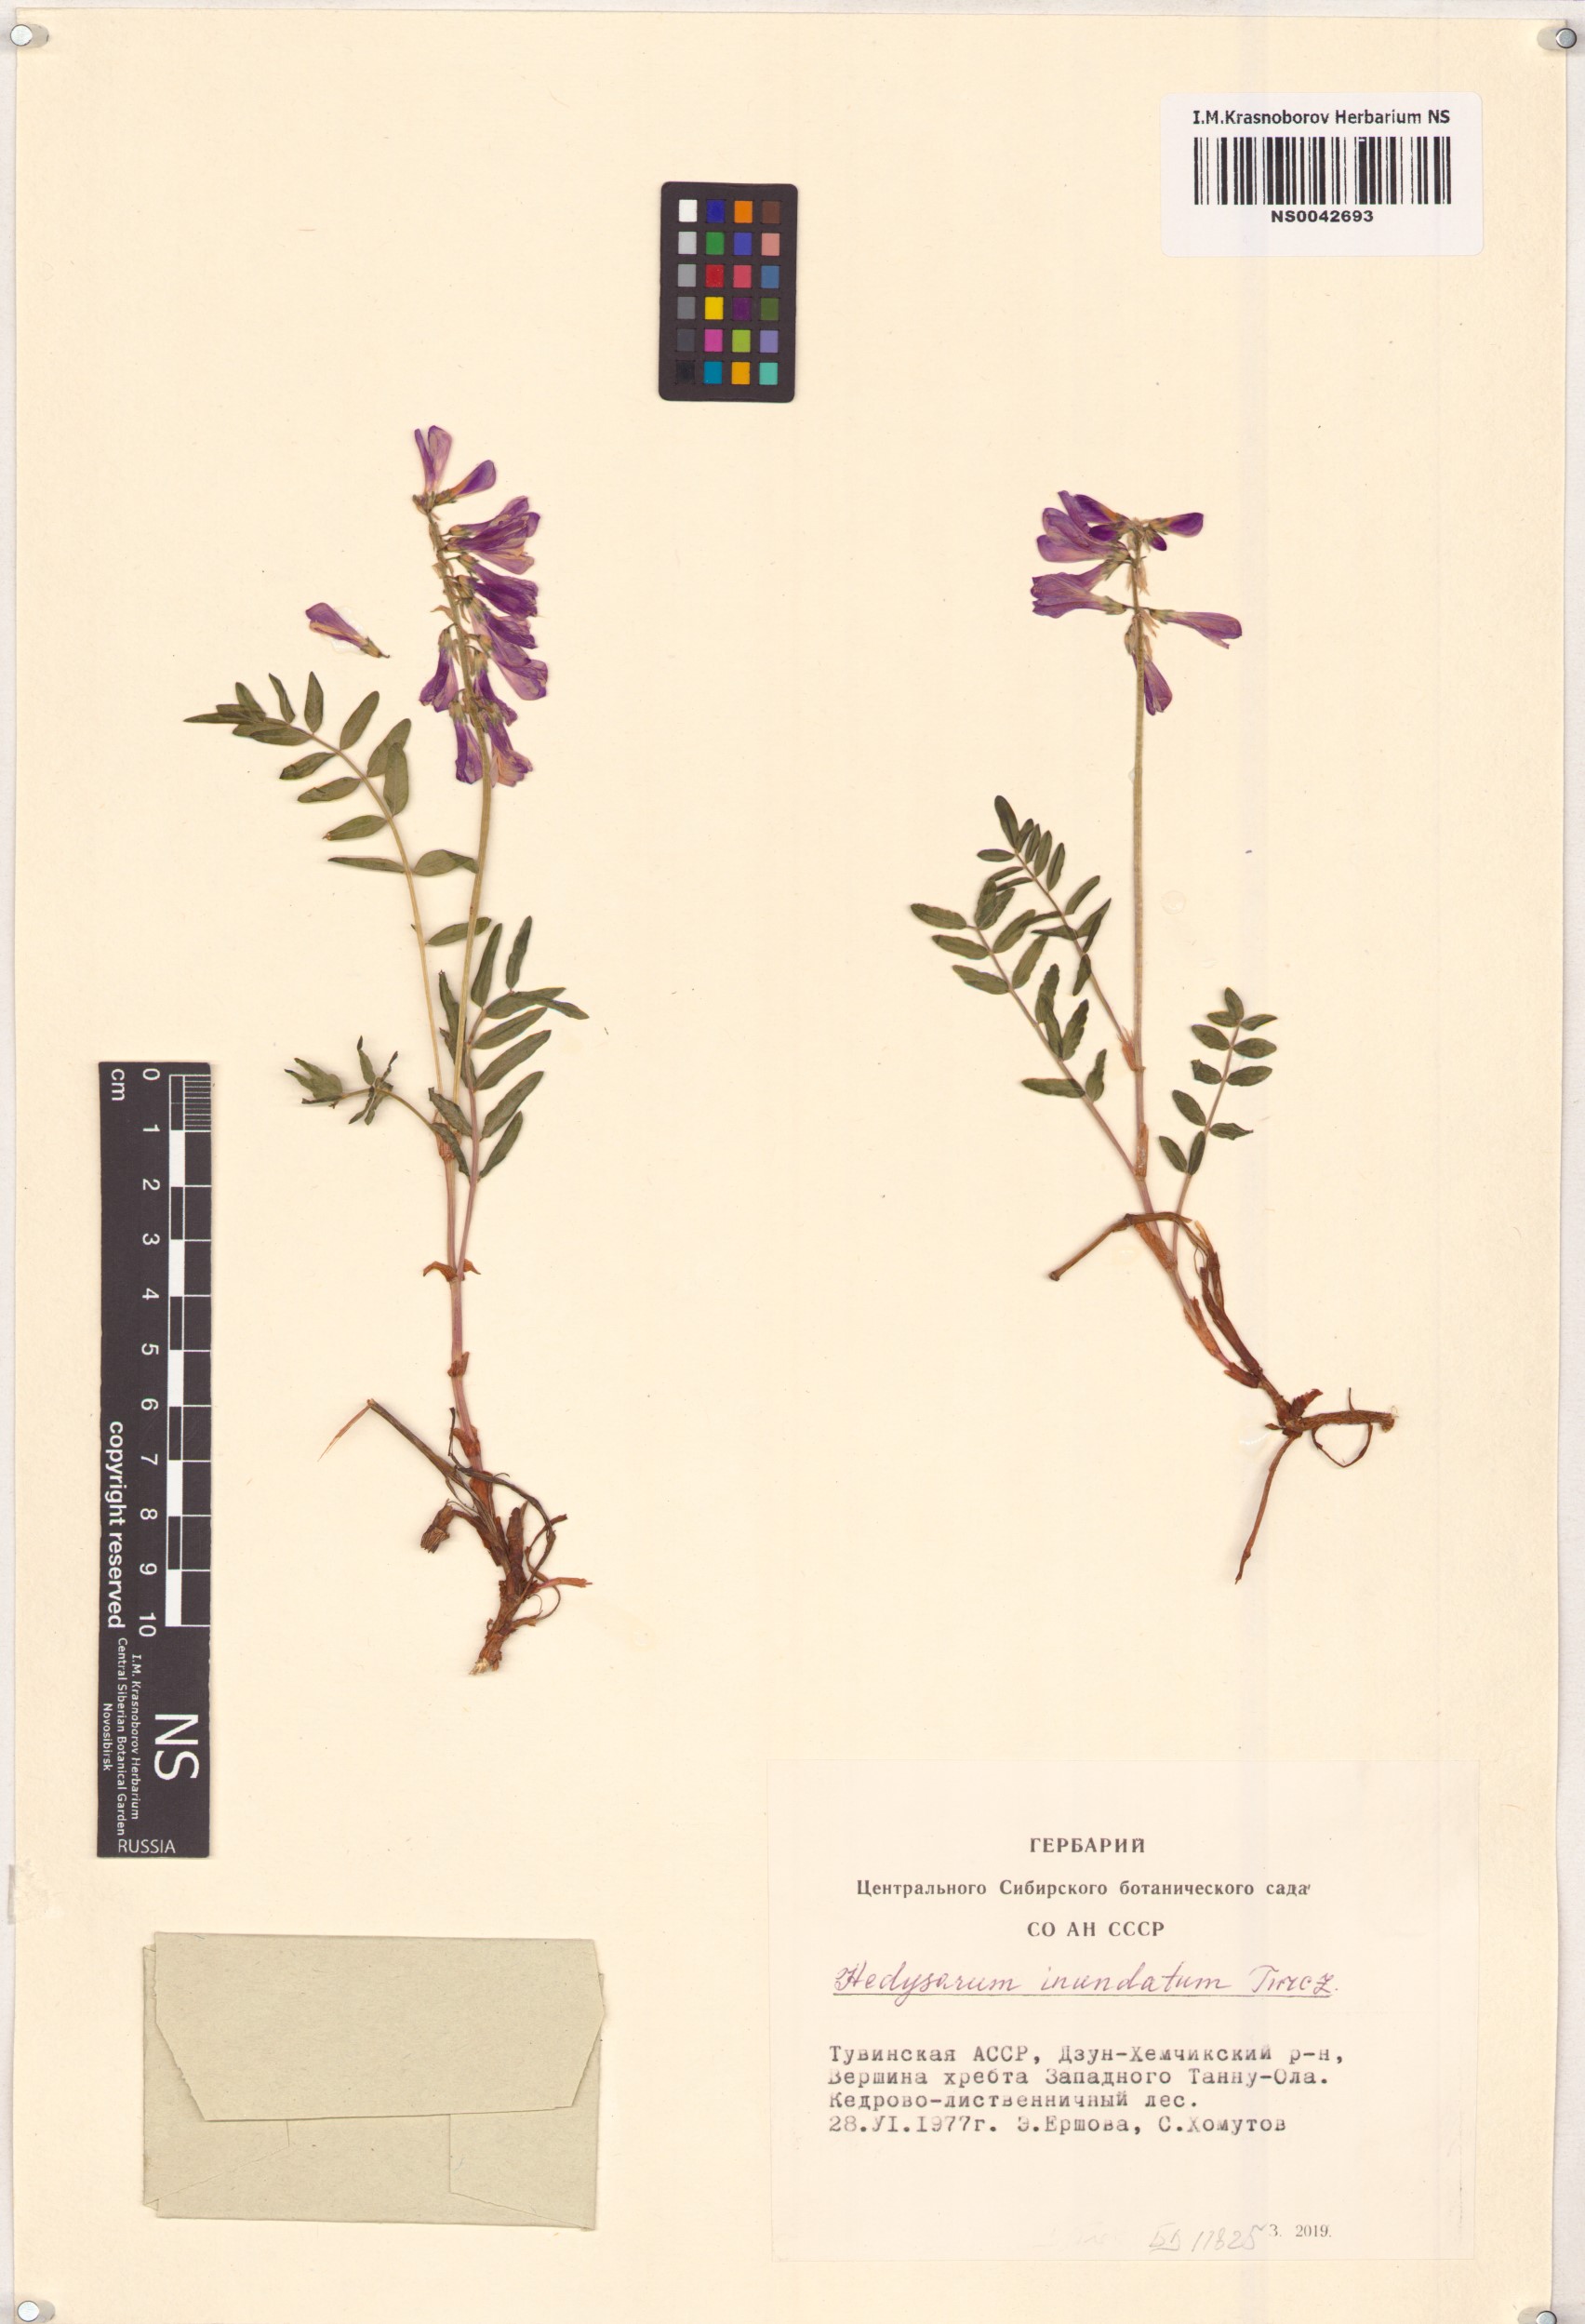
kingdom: Plantae
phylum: Tracheophyta
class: Magnoliopsida
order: Fabales
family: Fabaceae
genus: Hedysarum
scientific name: Hedysarum inundatum
